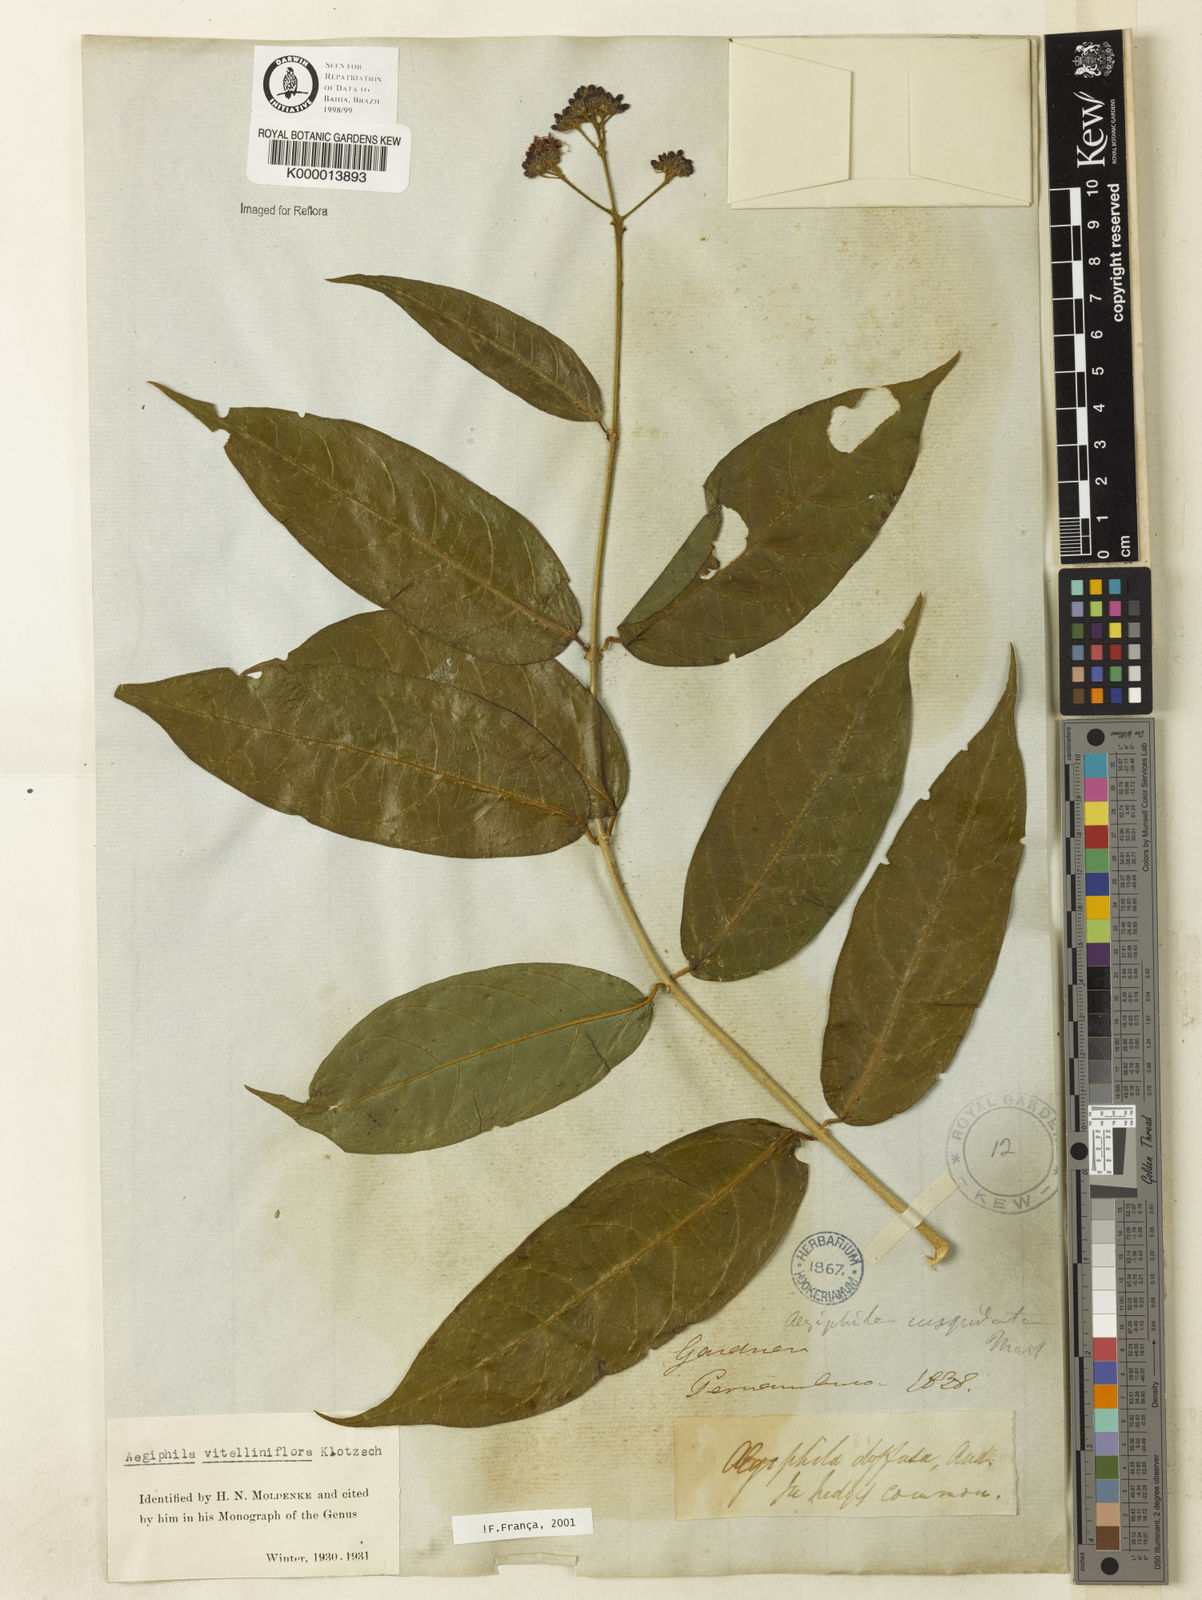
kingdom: Plantae
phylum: Tracheophyta
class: Magnoliopsida
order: Lamiales
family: Lamiaceae
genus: Aegiphila
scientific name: Aegiphila vitelliniflora
